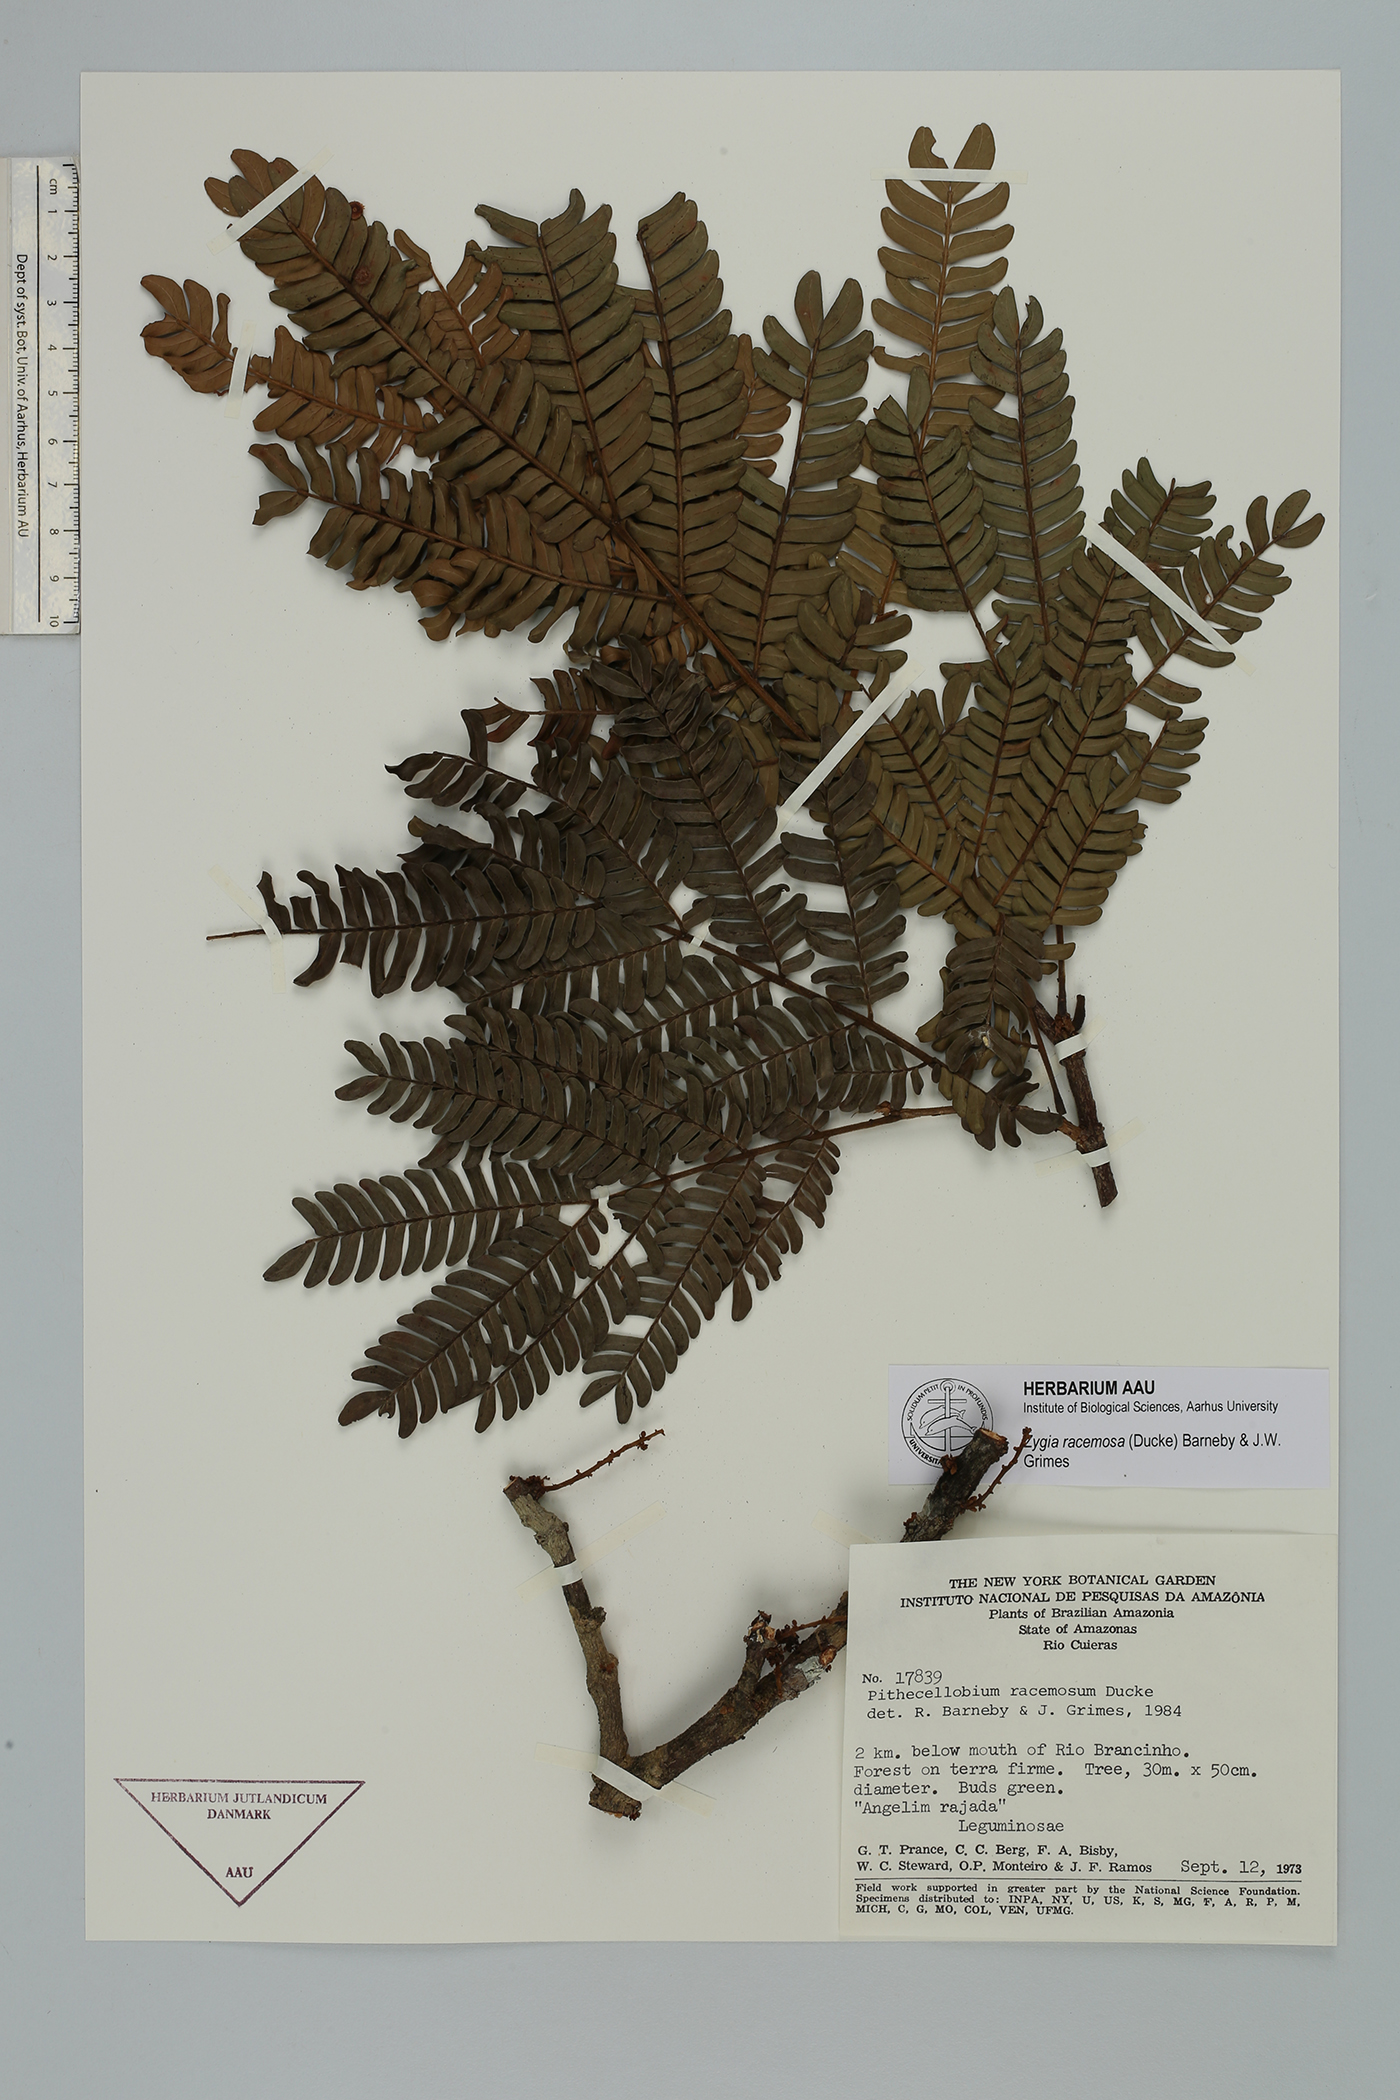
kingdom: Plantae
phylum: Tracheophyta
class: Magnoliopsida
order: Fabales
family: Fabaceae
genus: Zygia
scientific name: Zygia racemosa
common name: Marblewood
